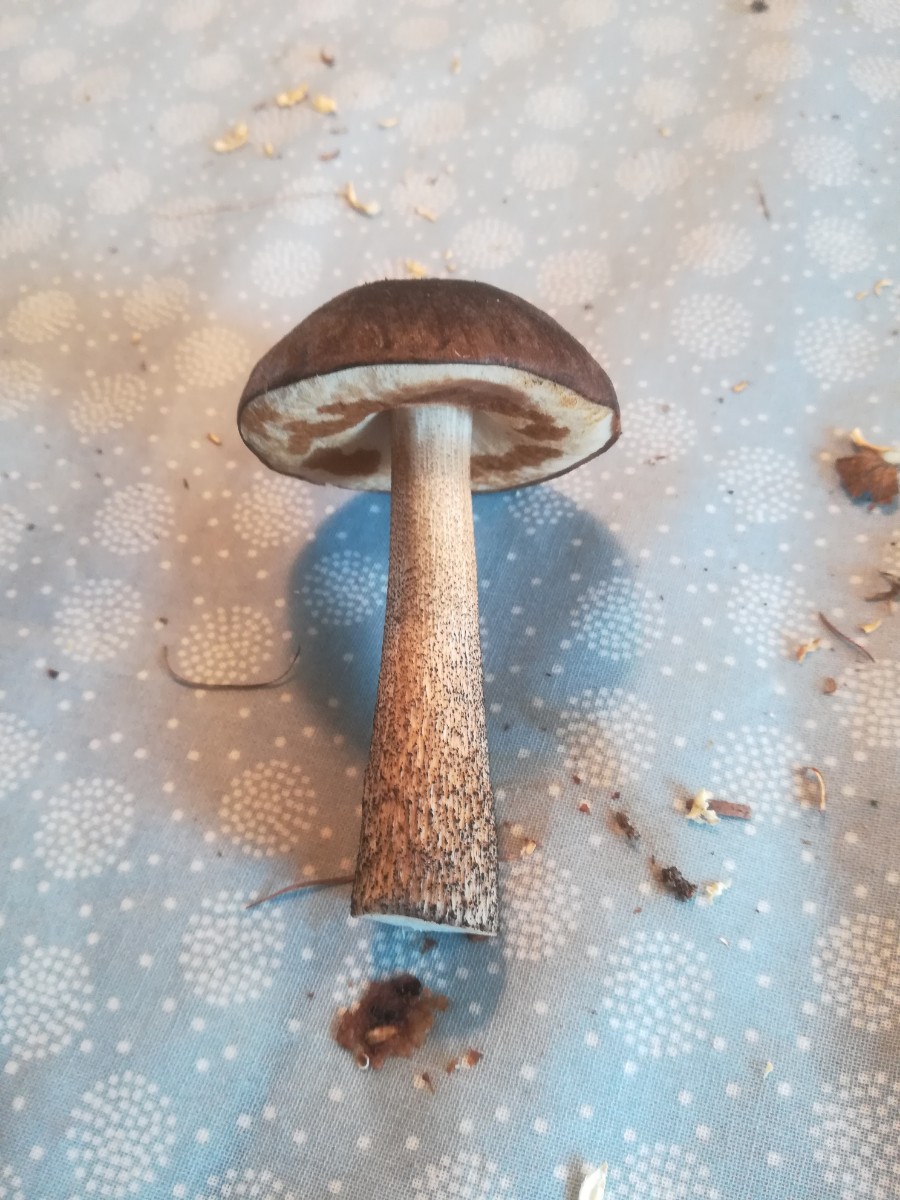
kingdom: Fungi
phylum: Basidiomycota
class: Agaricomycetes
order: Boletales
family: Boletaceae
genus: Leccinum
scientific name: Leccinum
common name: skælrørhat
